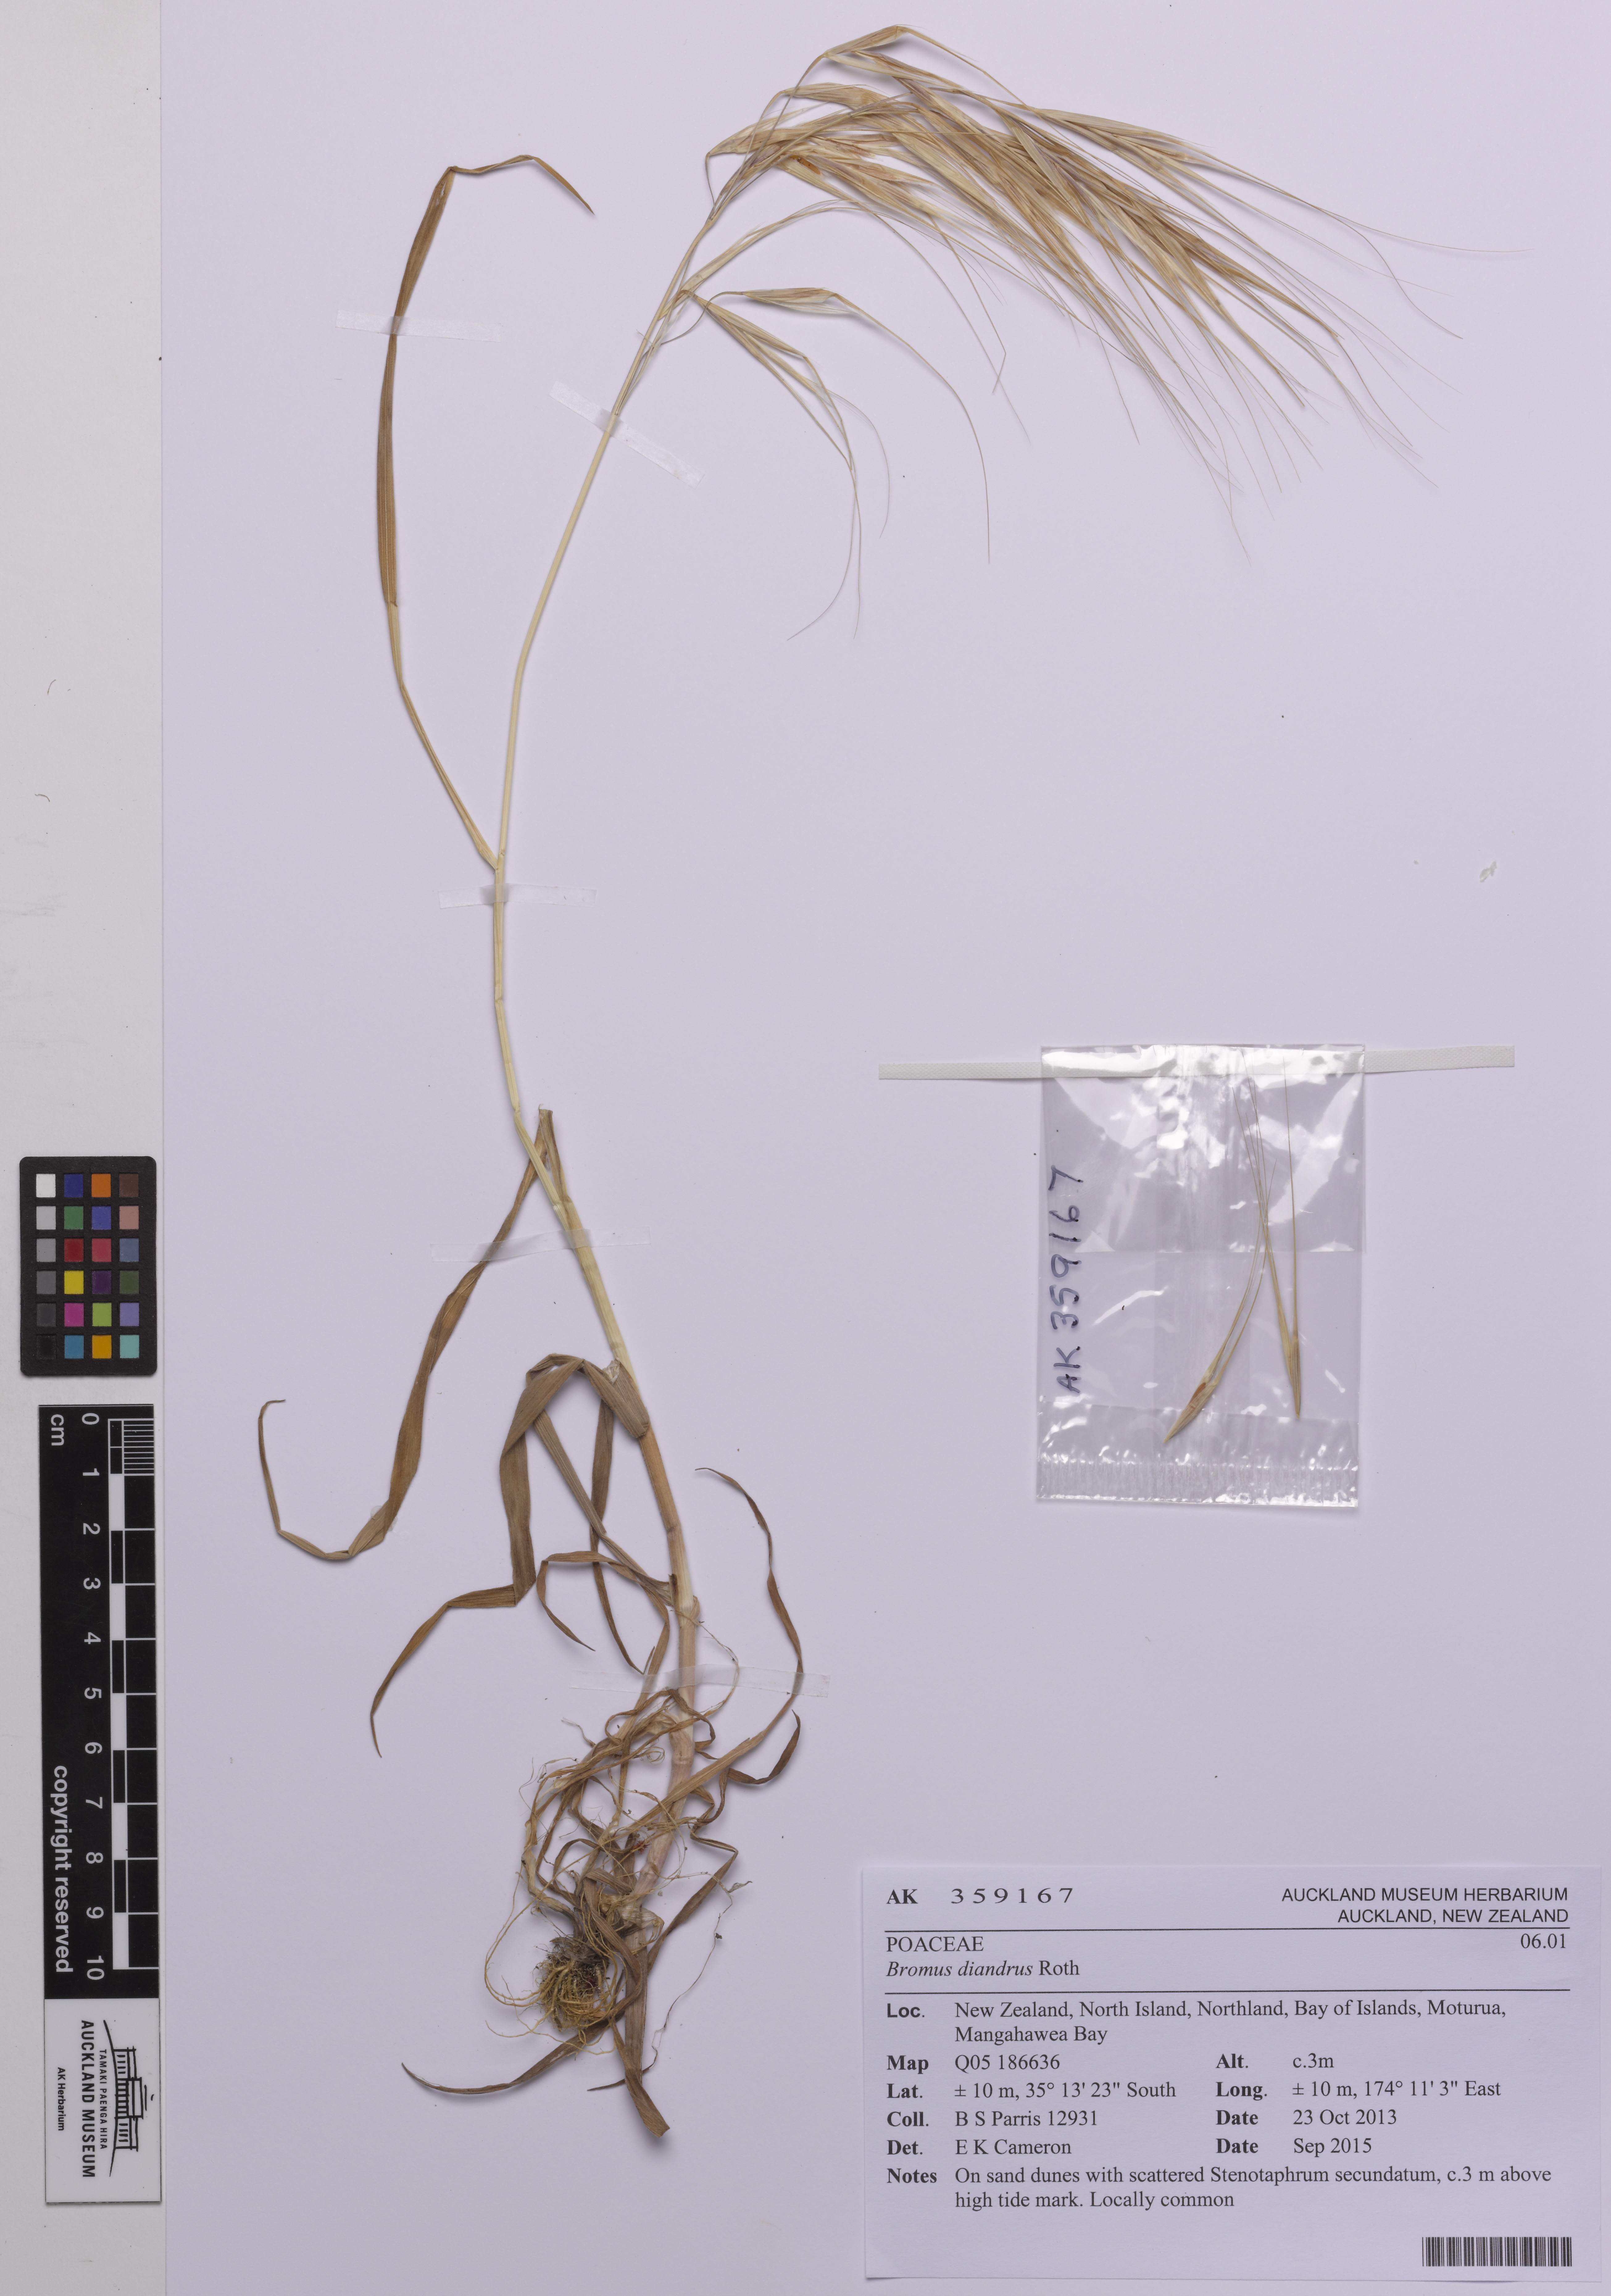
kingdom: Plantae
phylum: Tracheophyta
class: Liliopsida
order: Poales
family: Poaceae
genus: Bromus
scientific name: Bromus diandrus
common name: Ripgut brome
